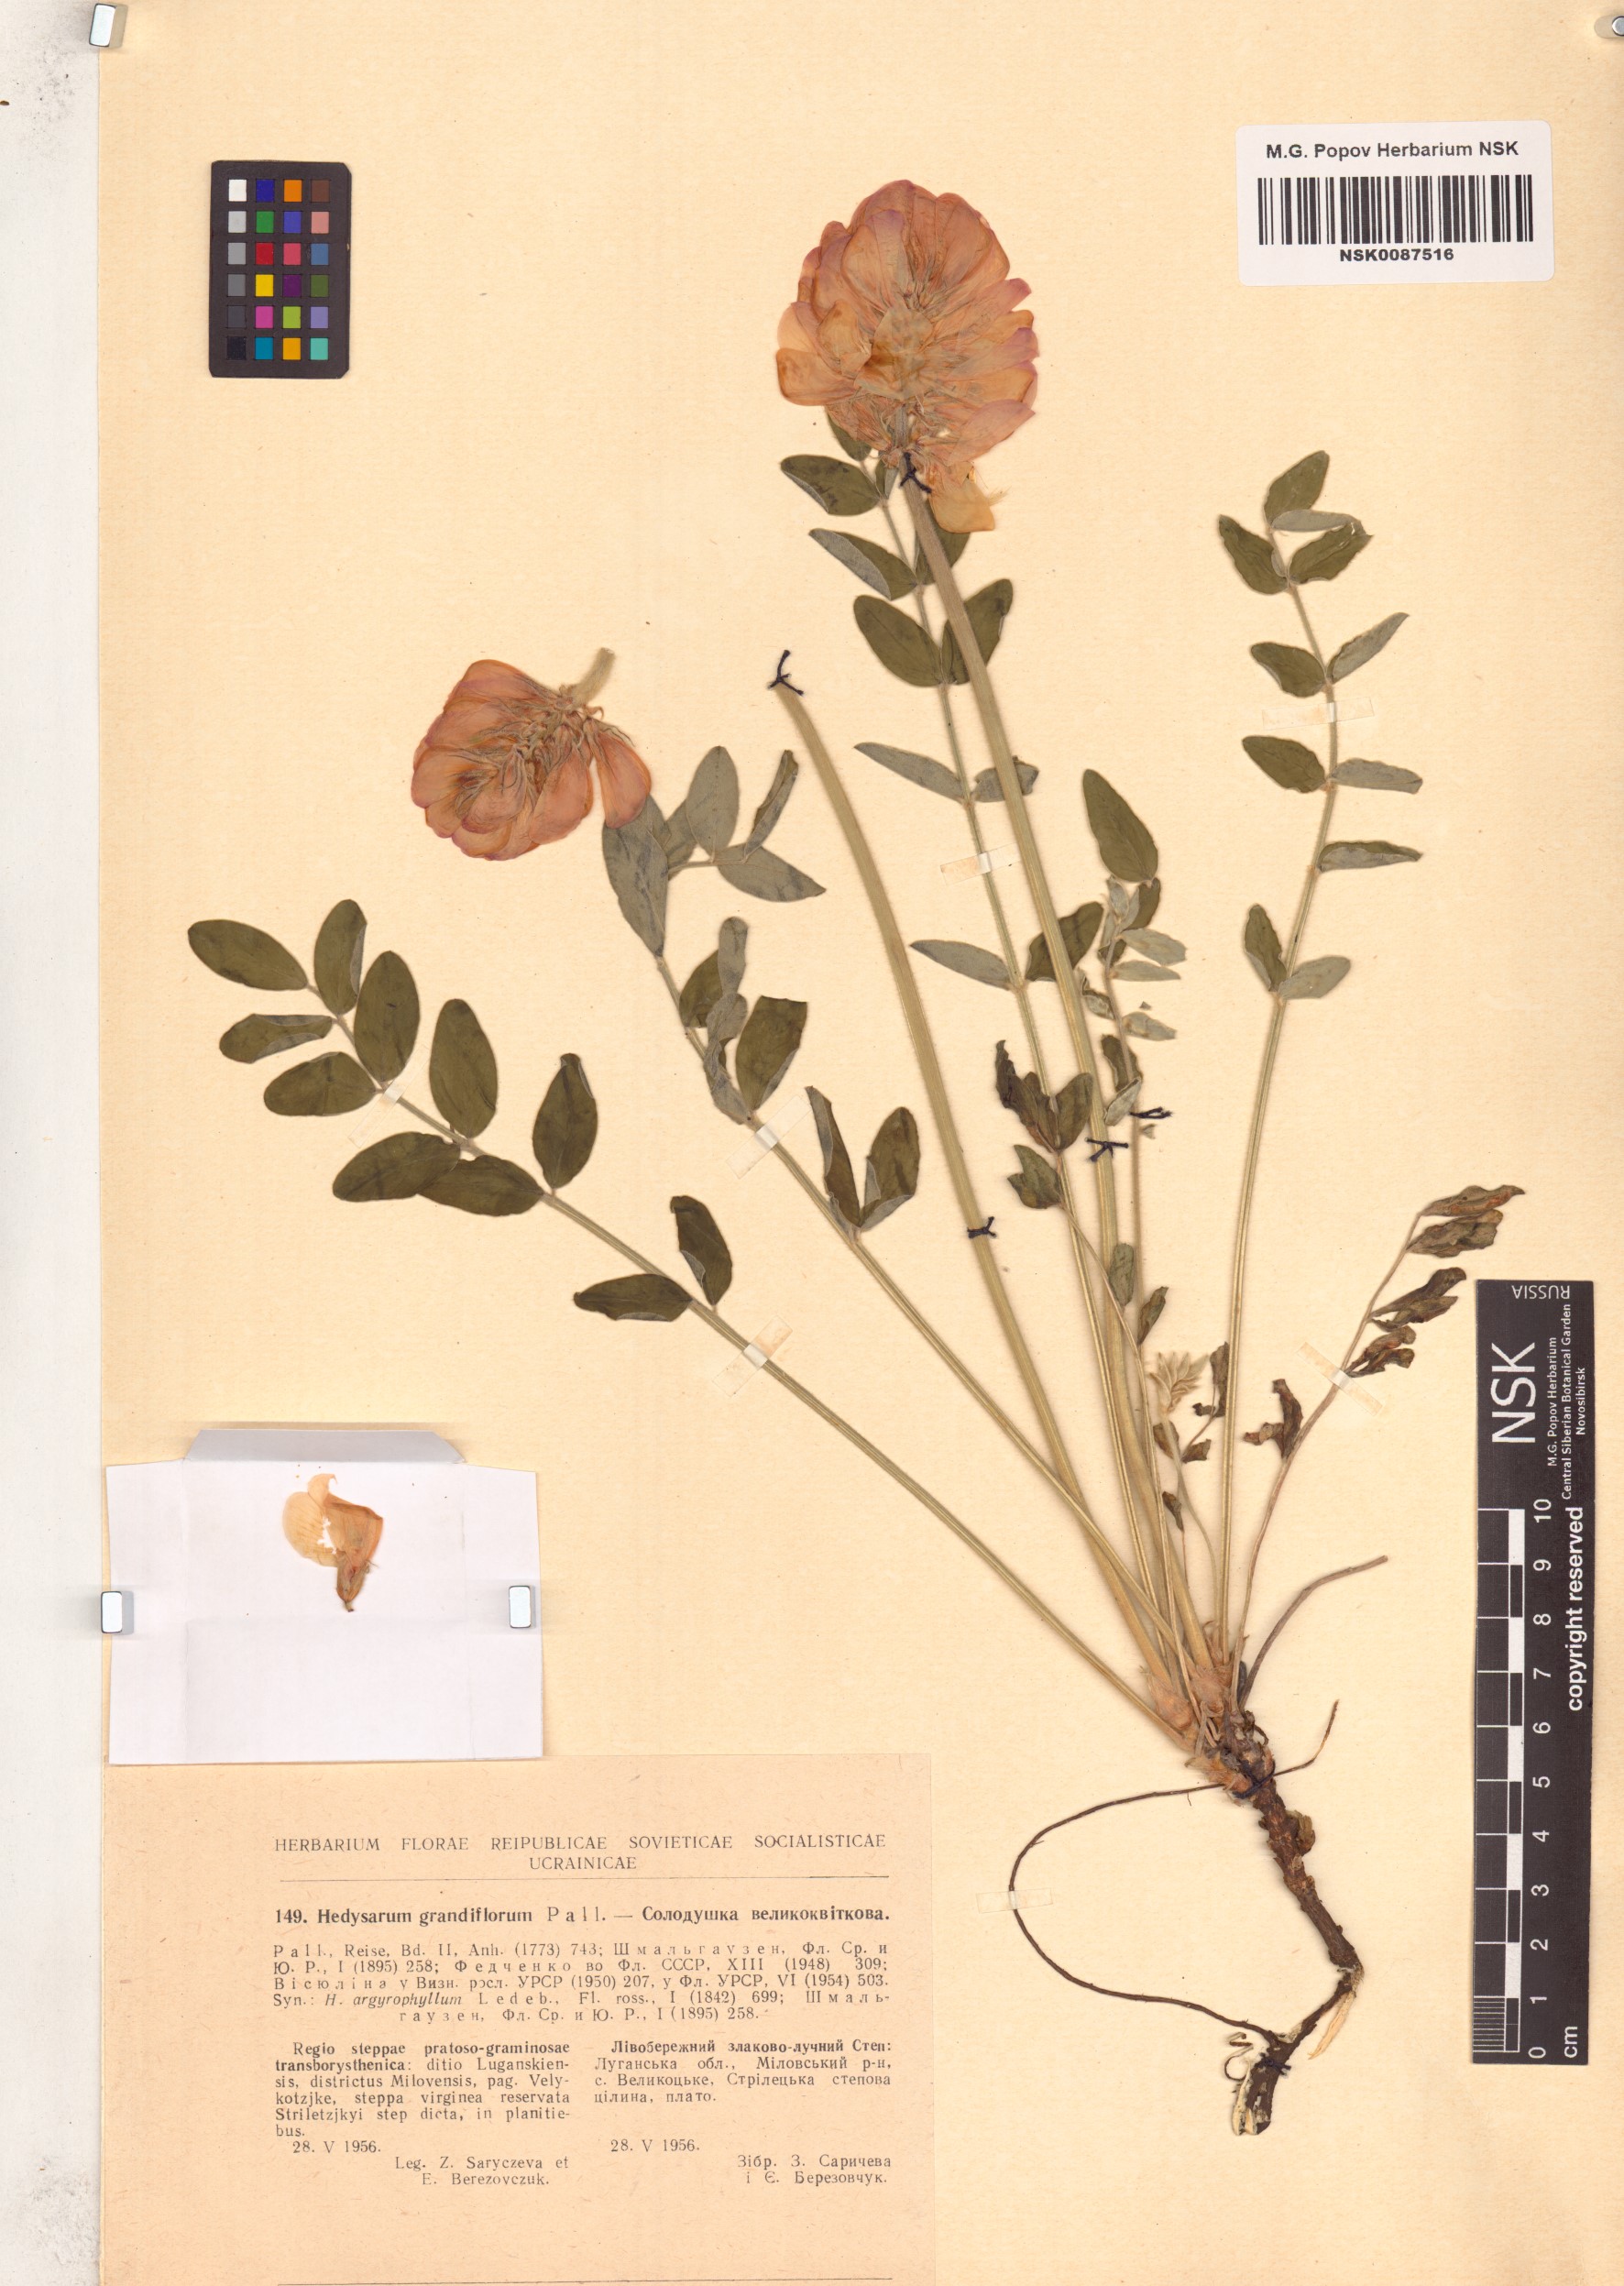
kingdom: Plantae
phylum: Tracheophyta
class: Magnoliopsida
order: Fabales
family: Fabaceae
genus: Hedysarum
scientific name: Hedysarum grandiflorum
